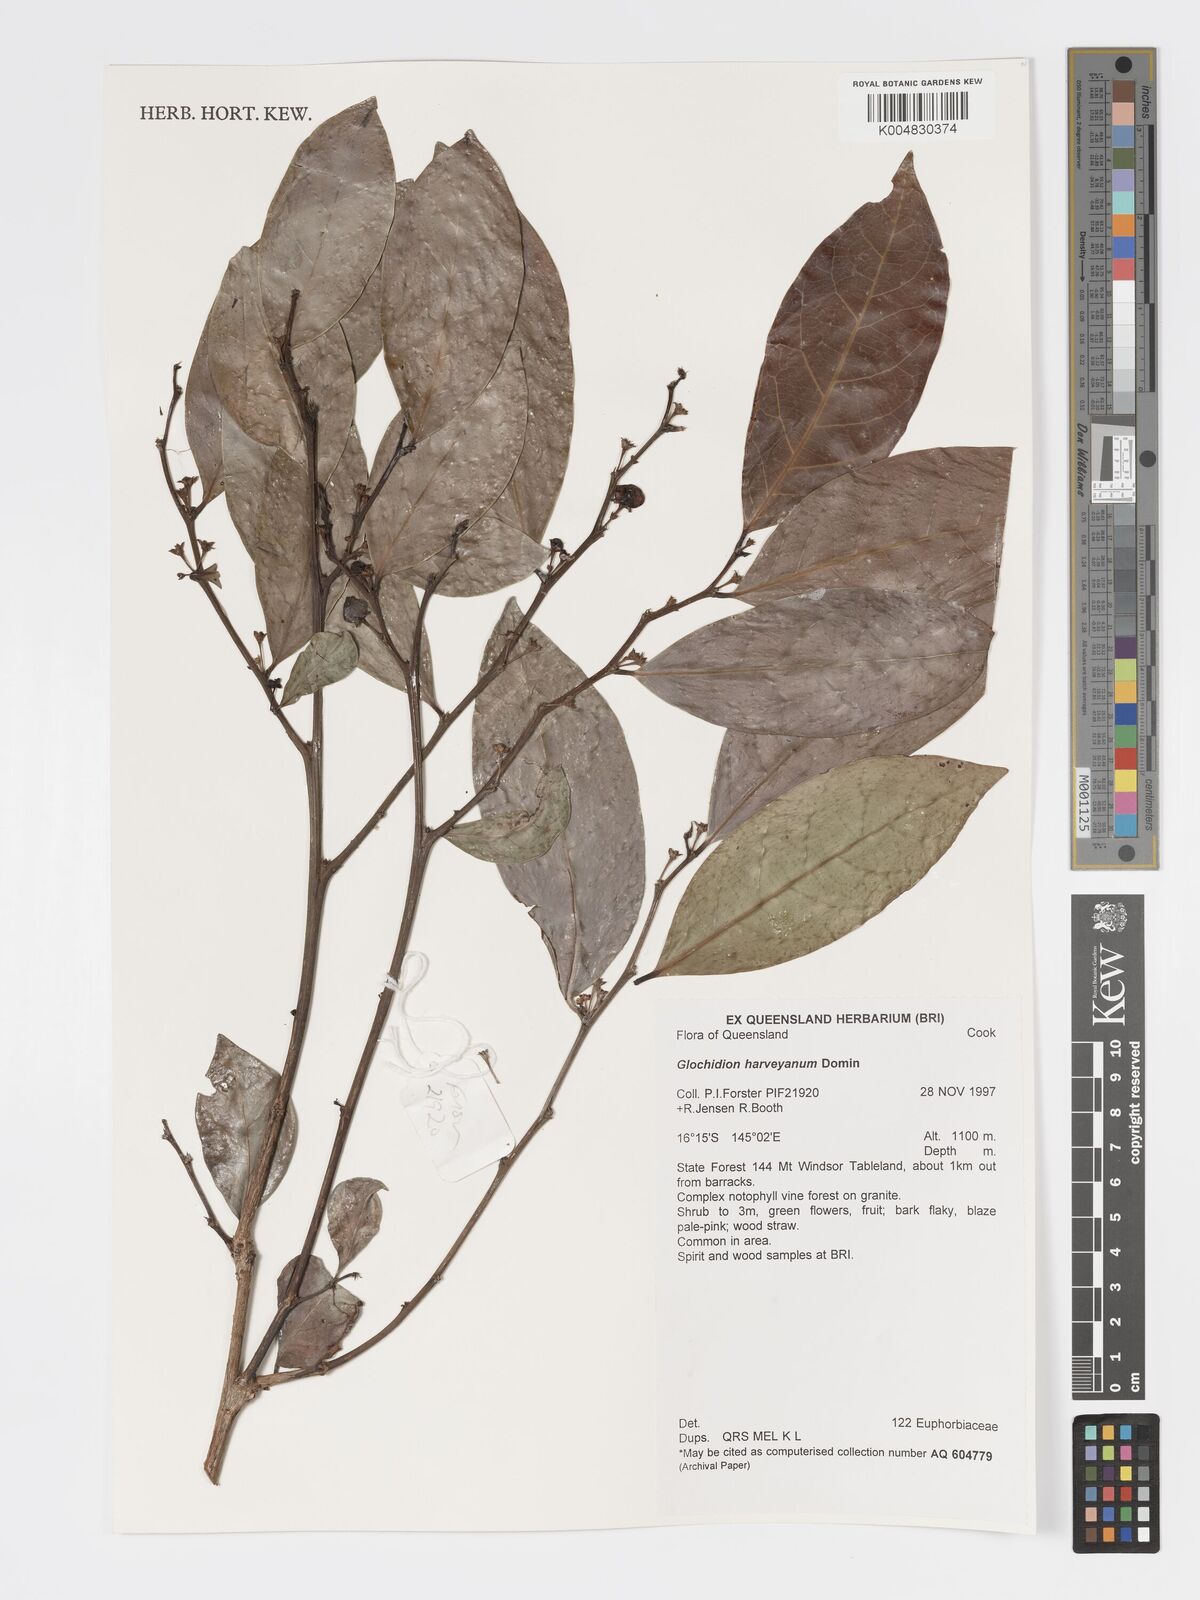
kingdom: Plantae
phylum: Tracheophyta
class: Magnoliopsida
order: Malpighiales
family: Phyllanthaceae
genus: Glochidion
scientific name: Glochidion harveyanum
